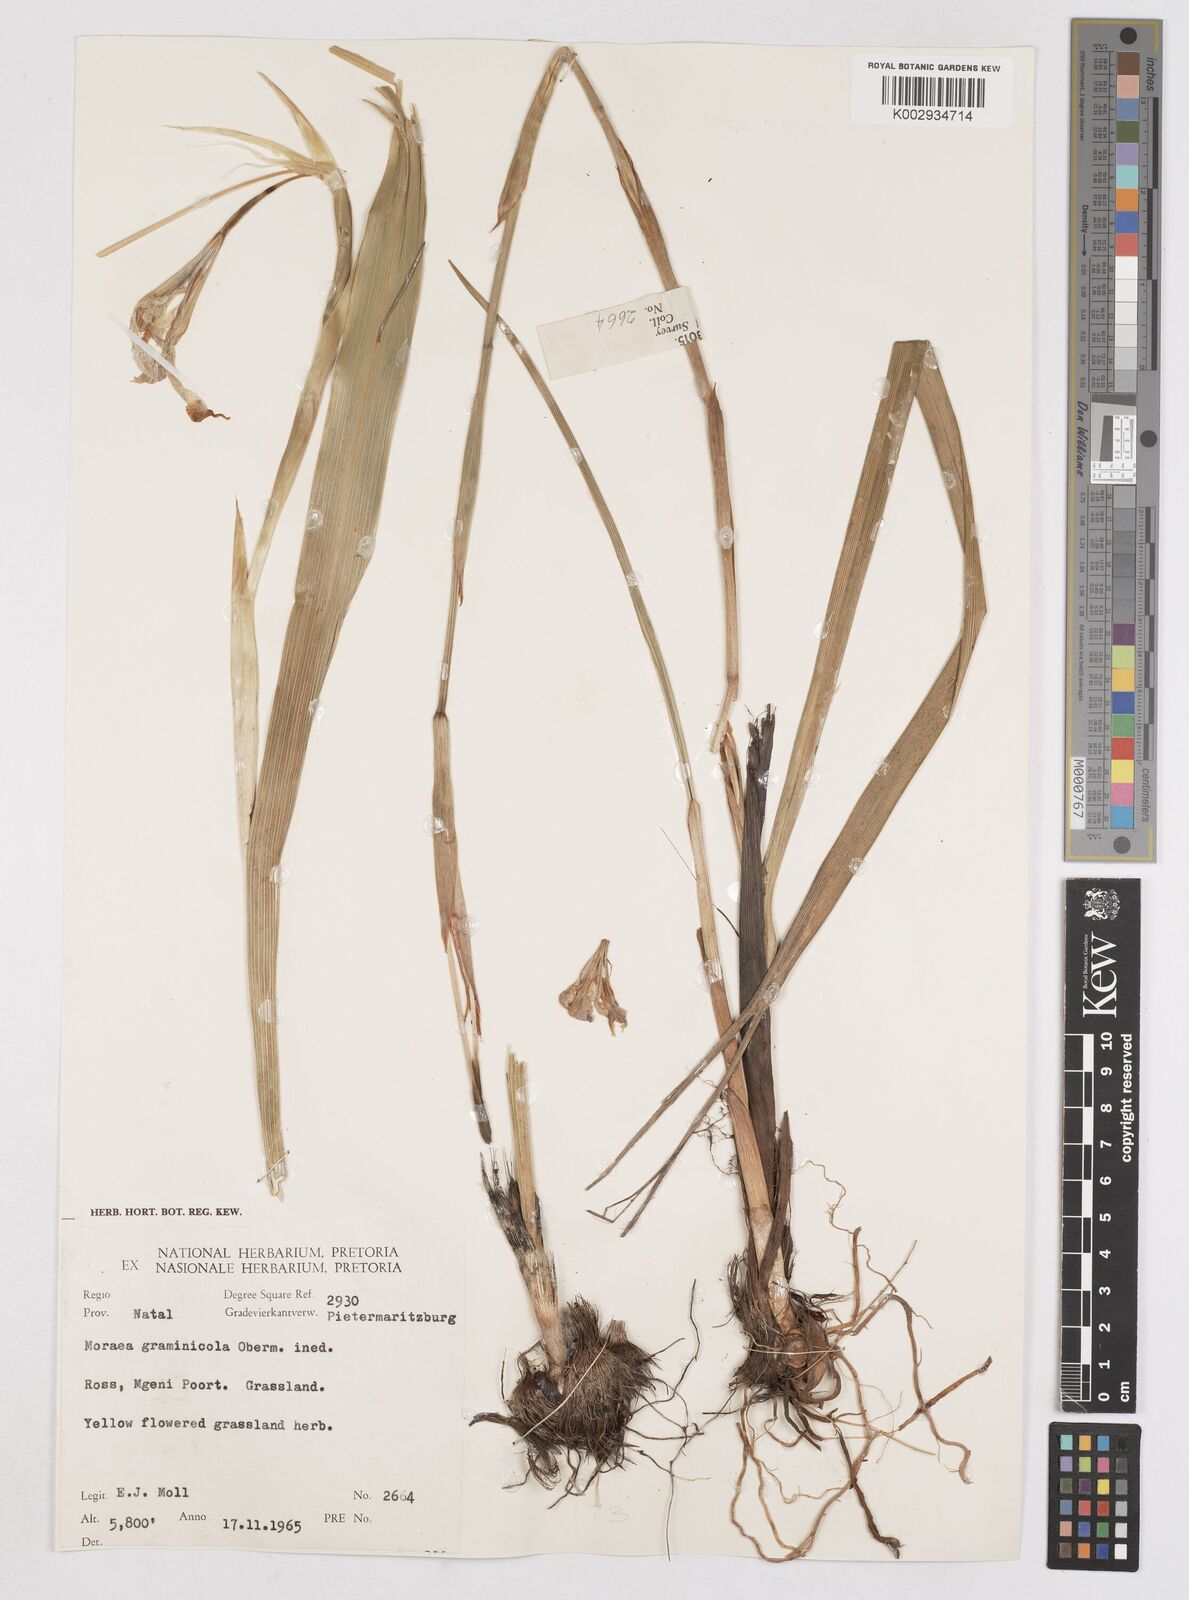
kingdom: Plantae
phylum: Tracheophyta
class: Liliopsida
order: Asparagales
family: Iridaceae
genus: Moraea
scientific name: Moraea graminicola
